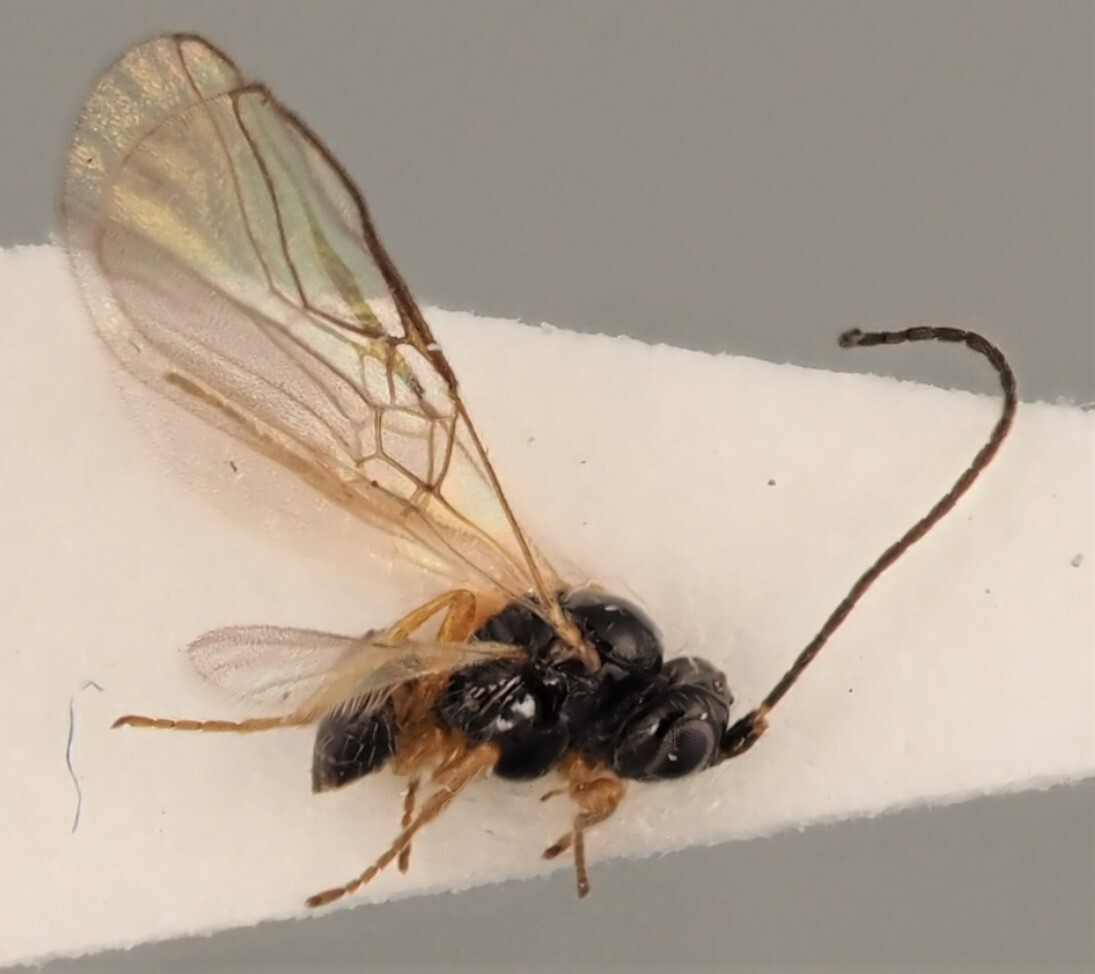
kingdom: Animalia
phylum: Arthropoda
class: Insecta
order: Hymenoptera
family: Braconidae
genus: Opius
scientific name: Opius levis
